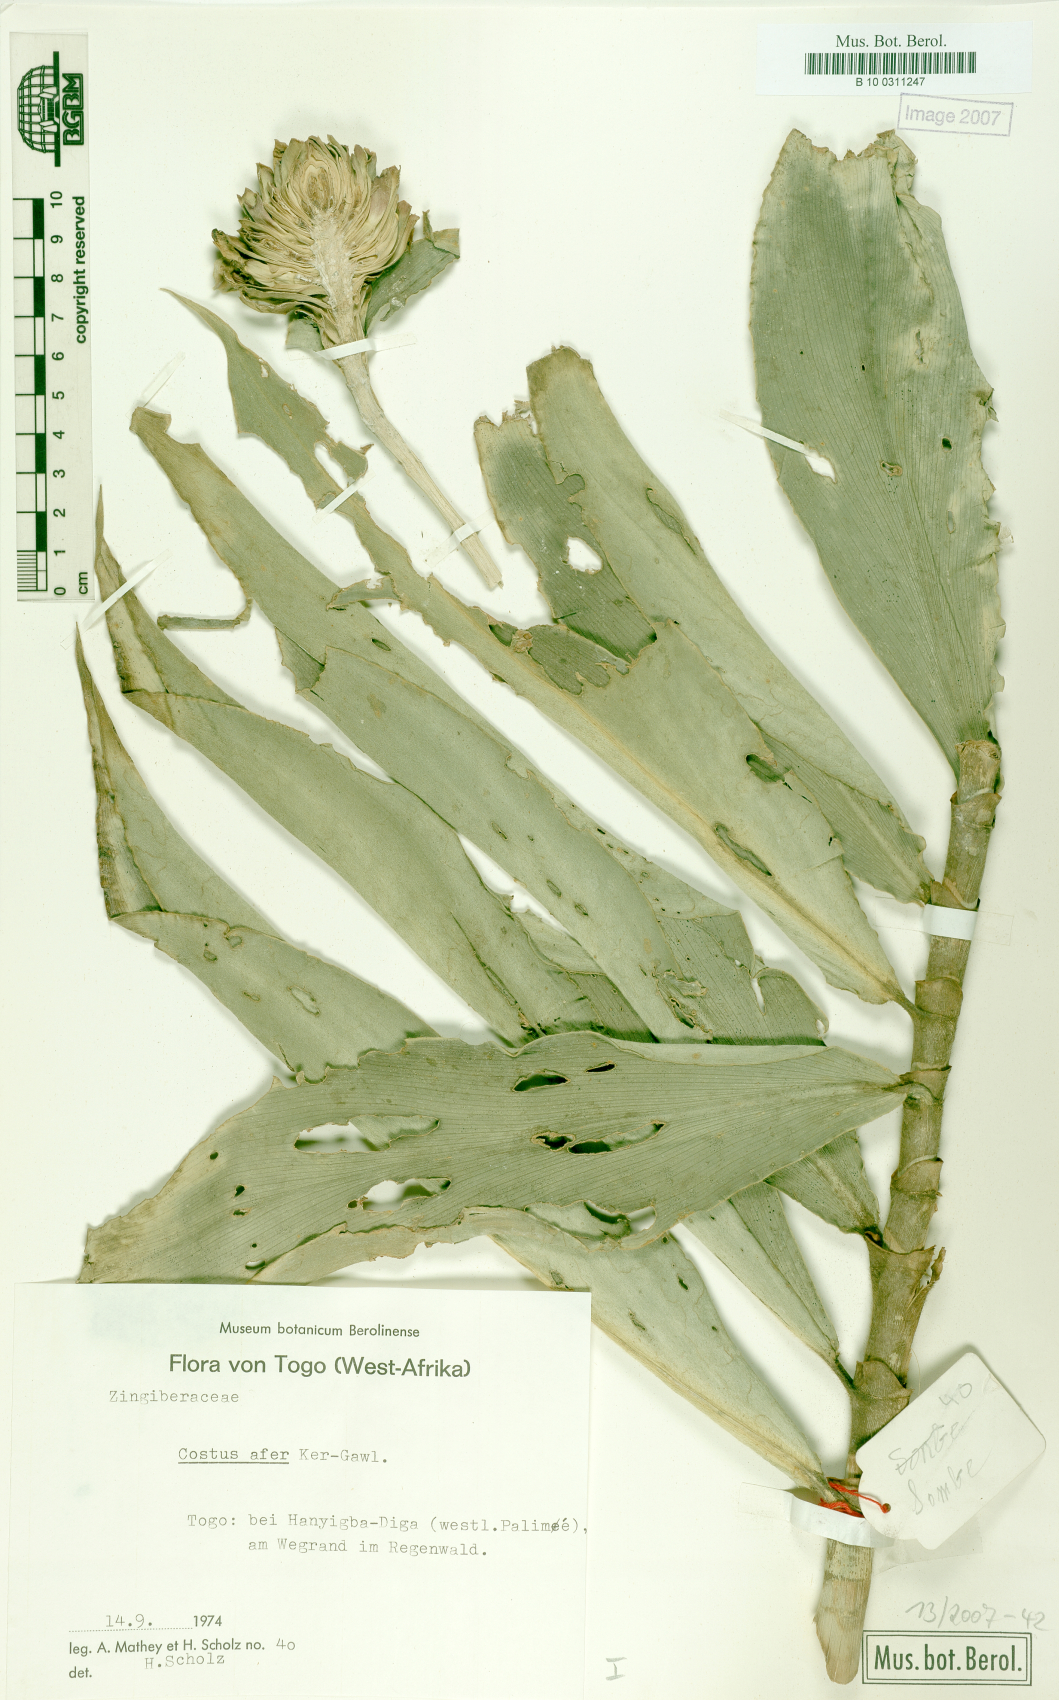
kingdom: Plantae
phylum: Tracheophyta
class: Liliopsida
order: Zingiberales
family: Costaceae
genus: Costus
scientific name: Costus afer
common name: Spiral-ginger
